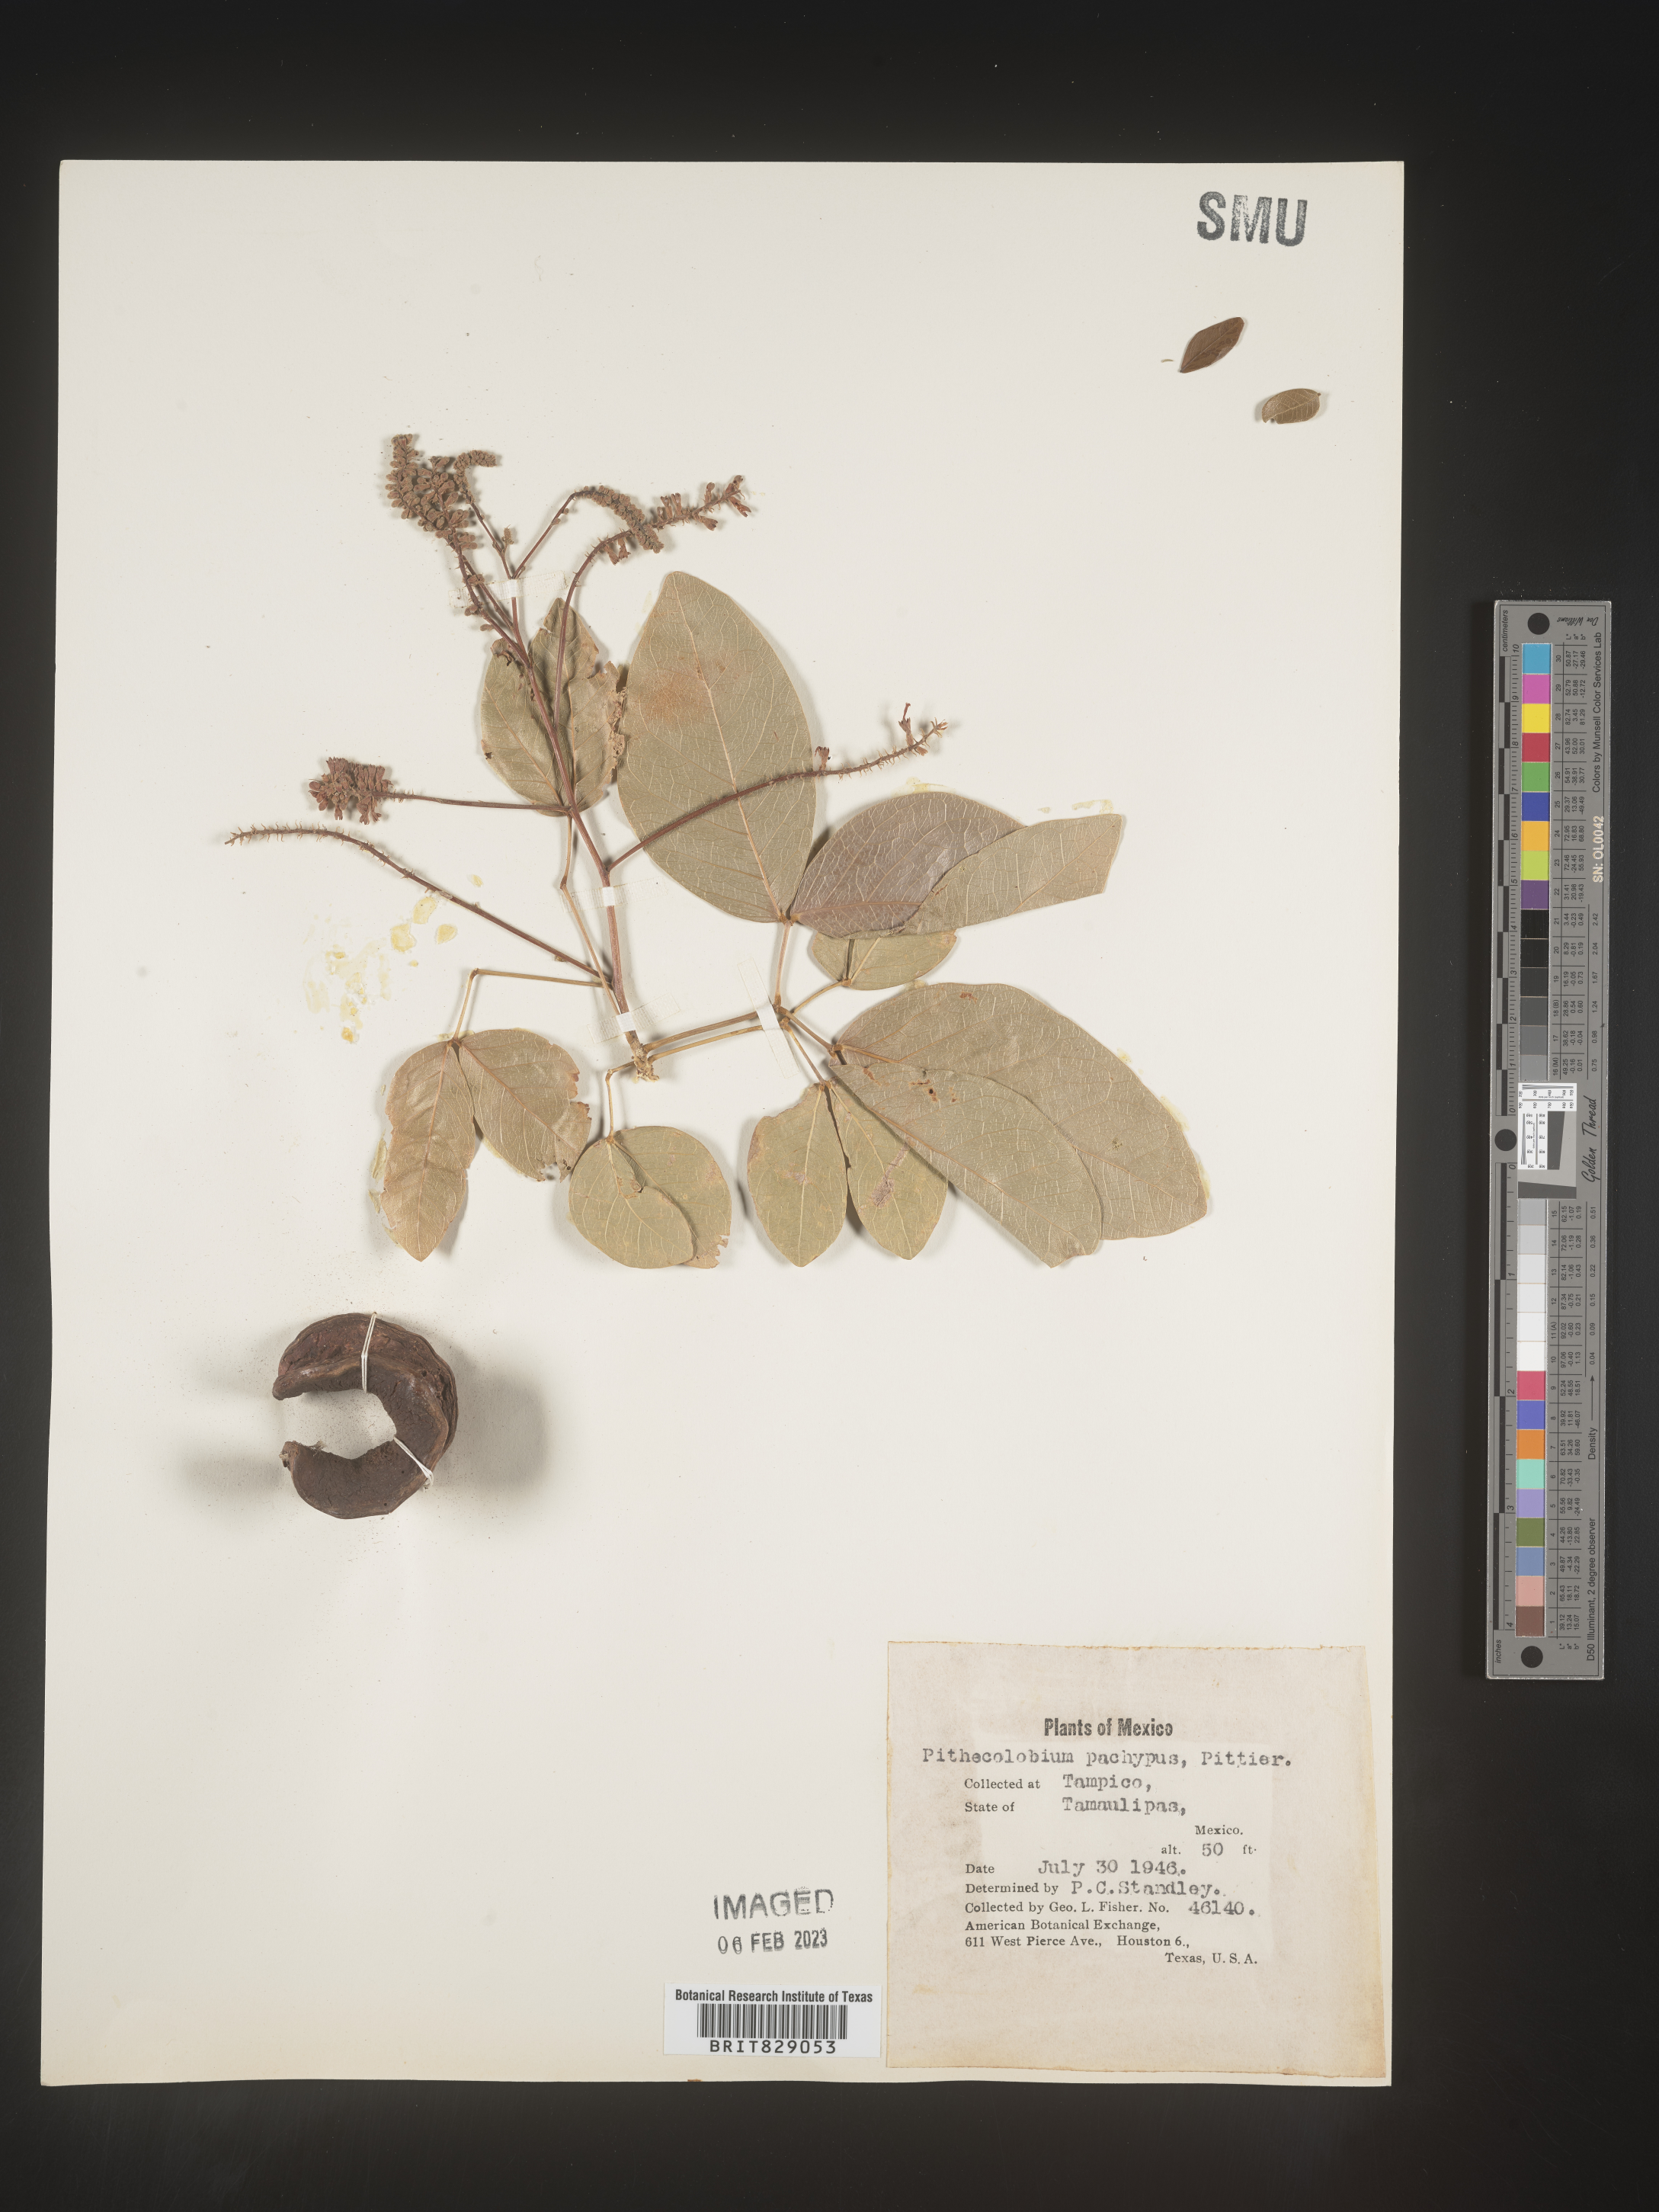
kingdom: Plantae
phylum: Tracheophyta
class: Magnoliopsida
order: Fabales
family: Fabaceae
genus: Pithecellobium
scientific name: Pithecellobium
